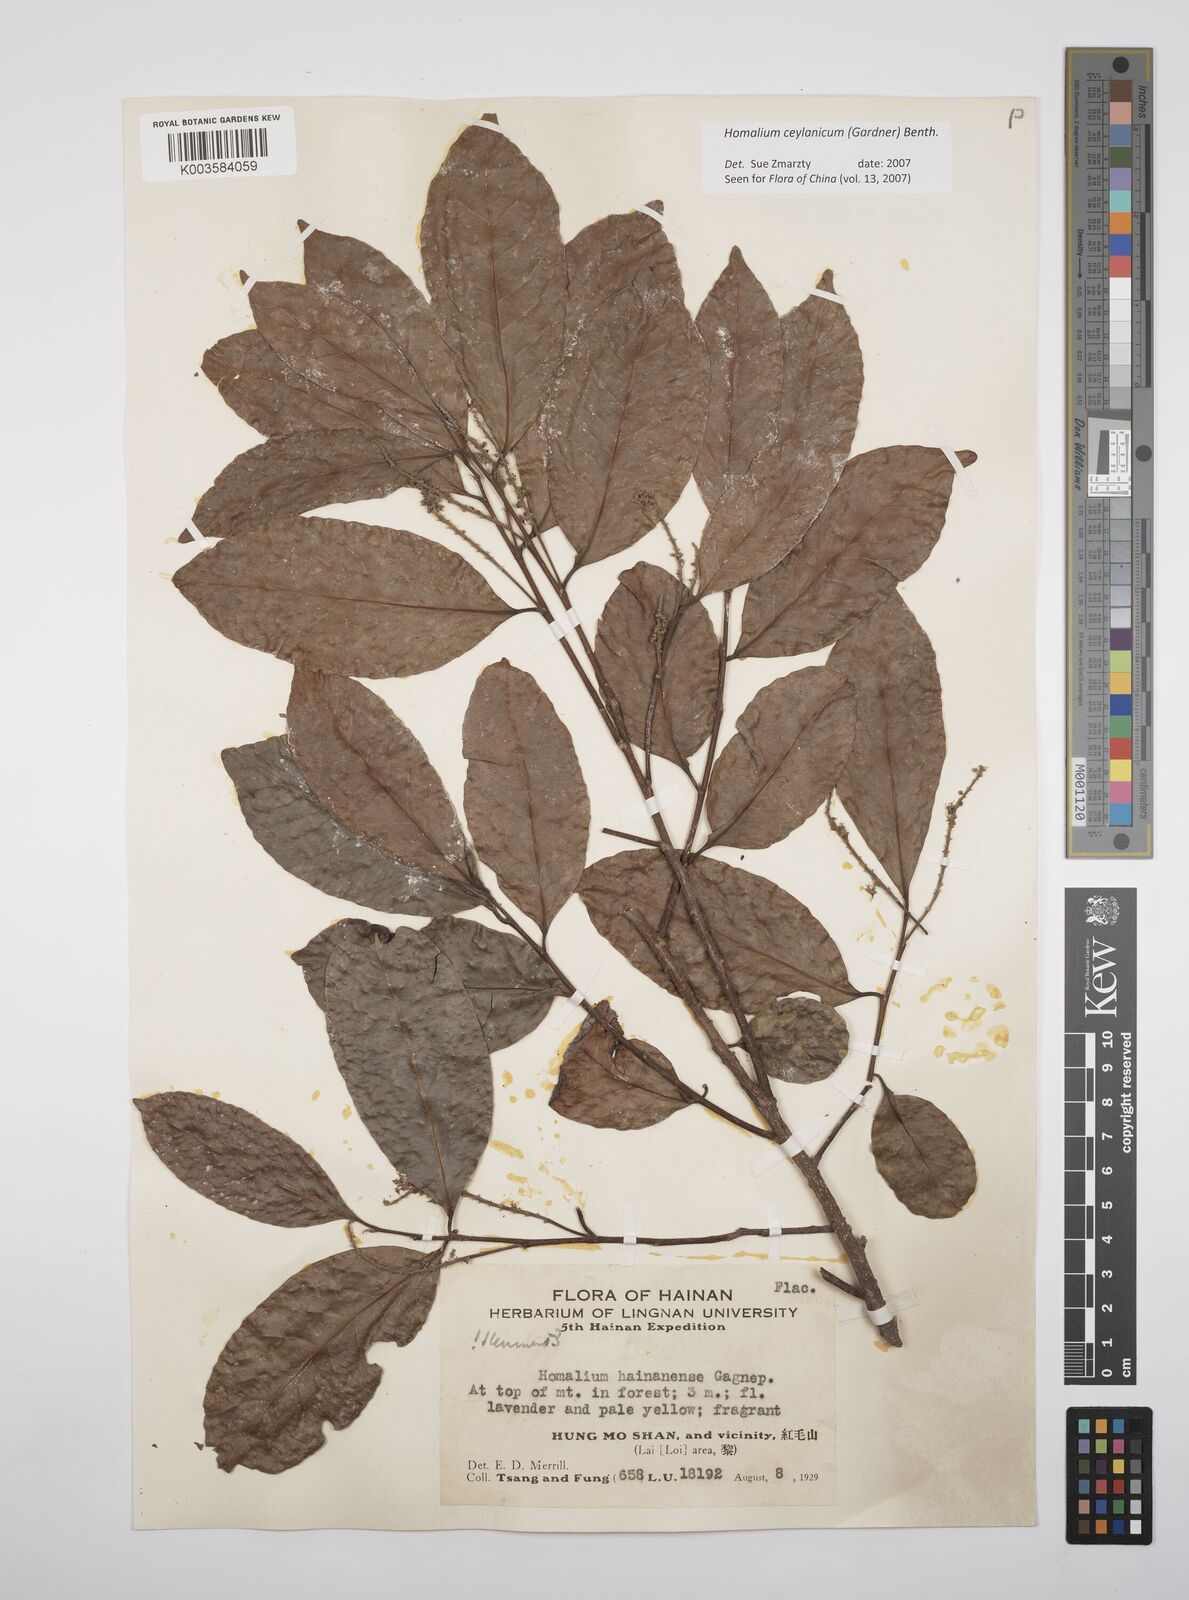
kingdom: Plantae
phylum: Tracheophyta
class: Magnoliopsida
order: Malpighiales
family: Salicaceae
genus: Homalium
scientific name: Homalium ceylanicum
